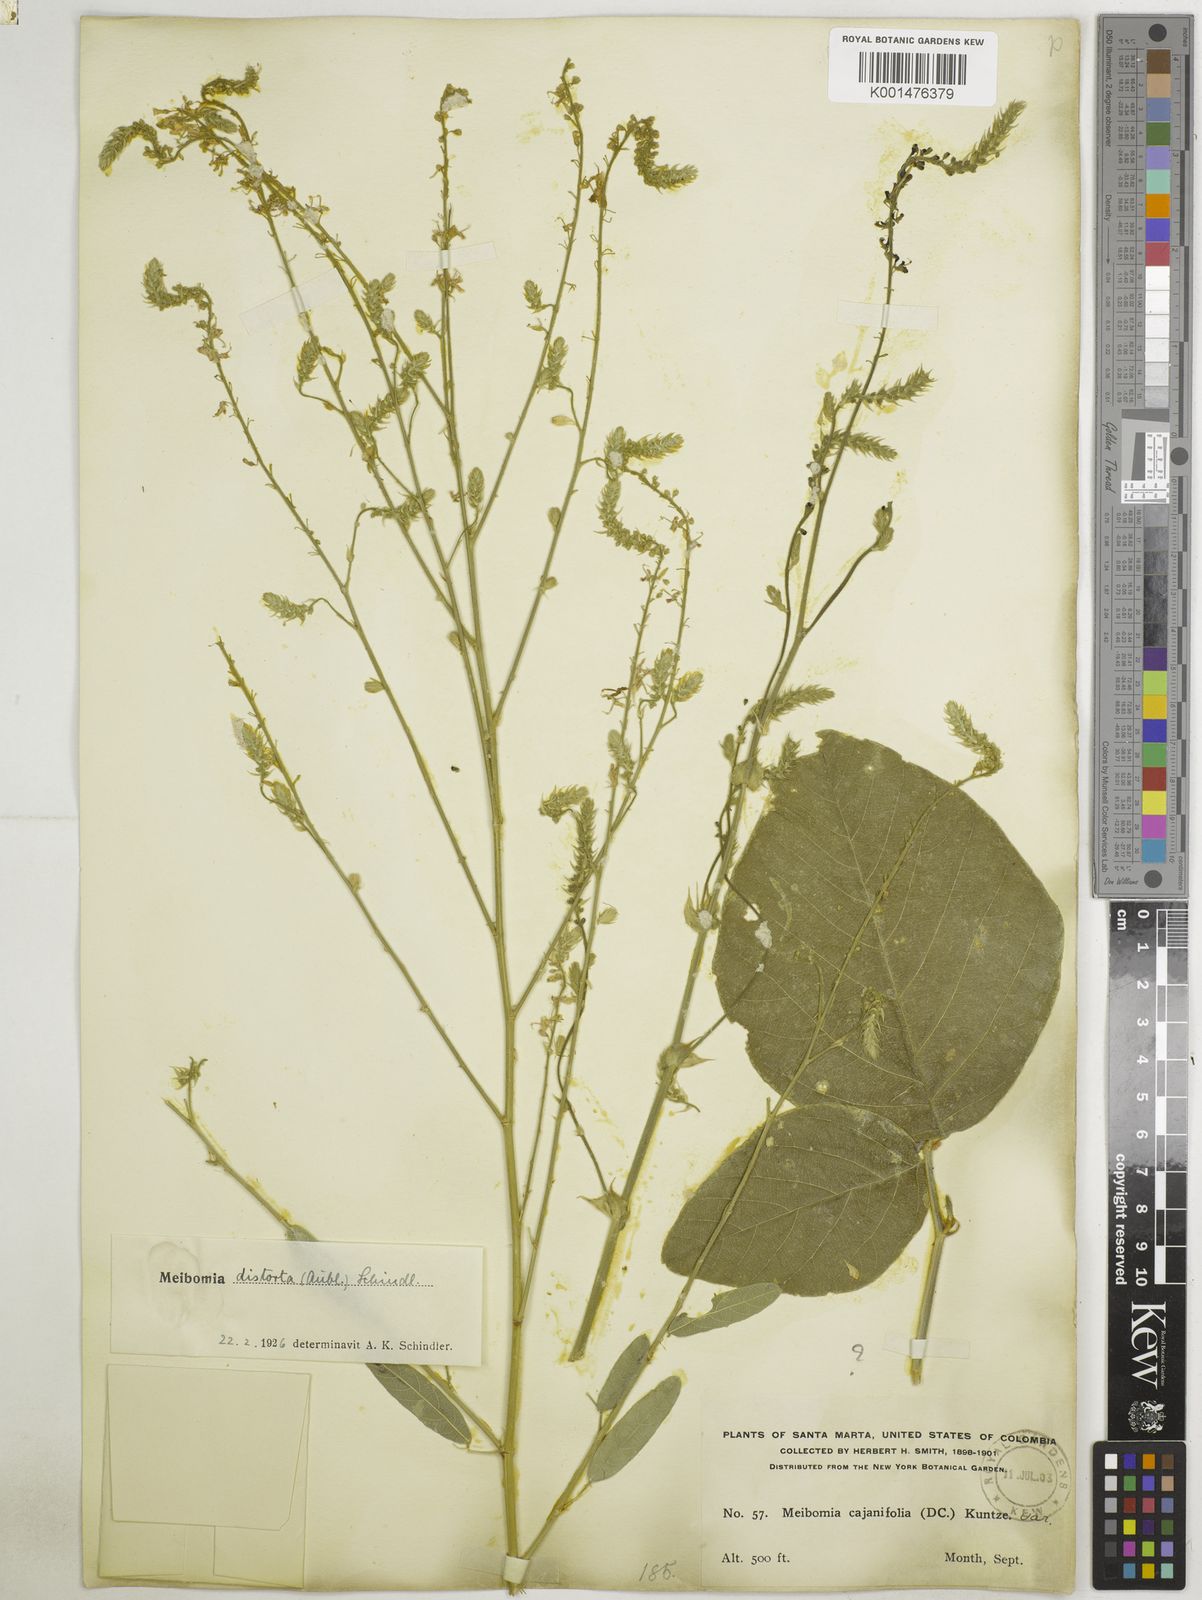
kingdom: Plantae
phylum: Tracheophyta
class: Magnoliopsida
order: Fabales
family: Fabaceae
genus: Desmodium
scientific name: Desmodium distortum
